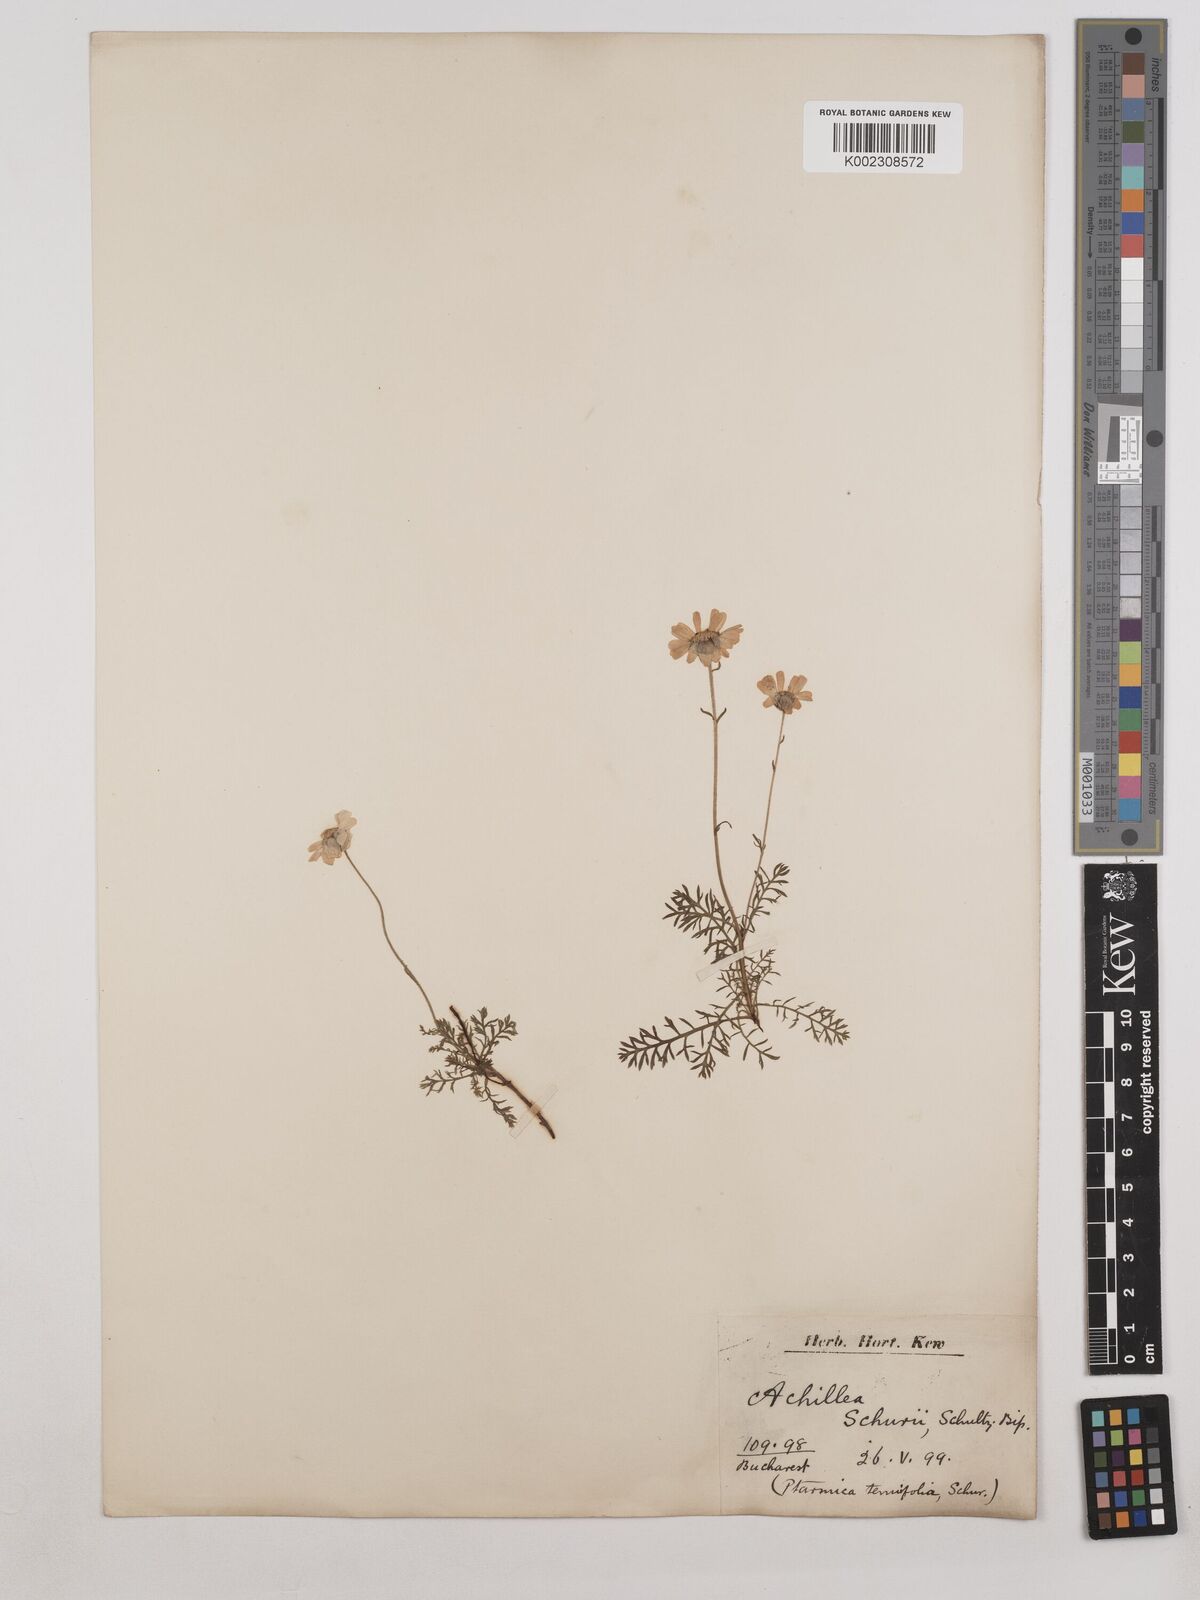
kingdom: Plantae
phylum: Tracheophyta
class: Magnoliopsida
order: Asterales
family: Asteraceae
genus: Achillea
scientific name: Achillea oxyloba
